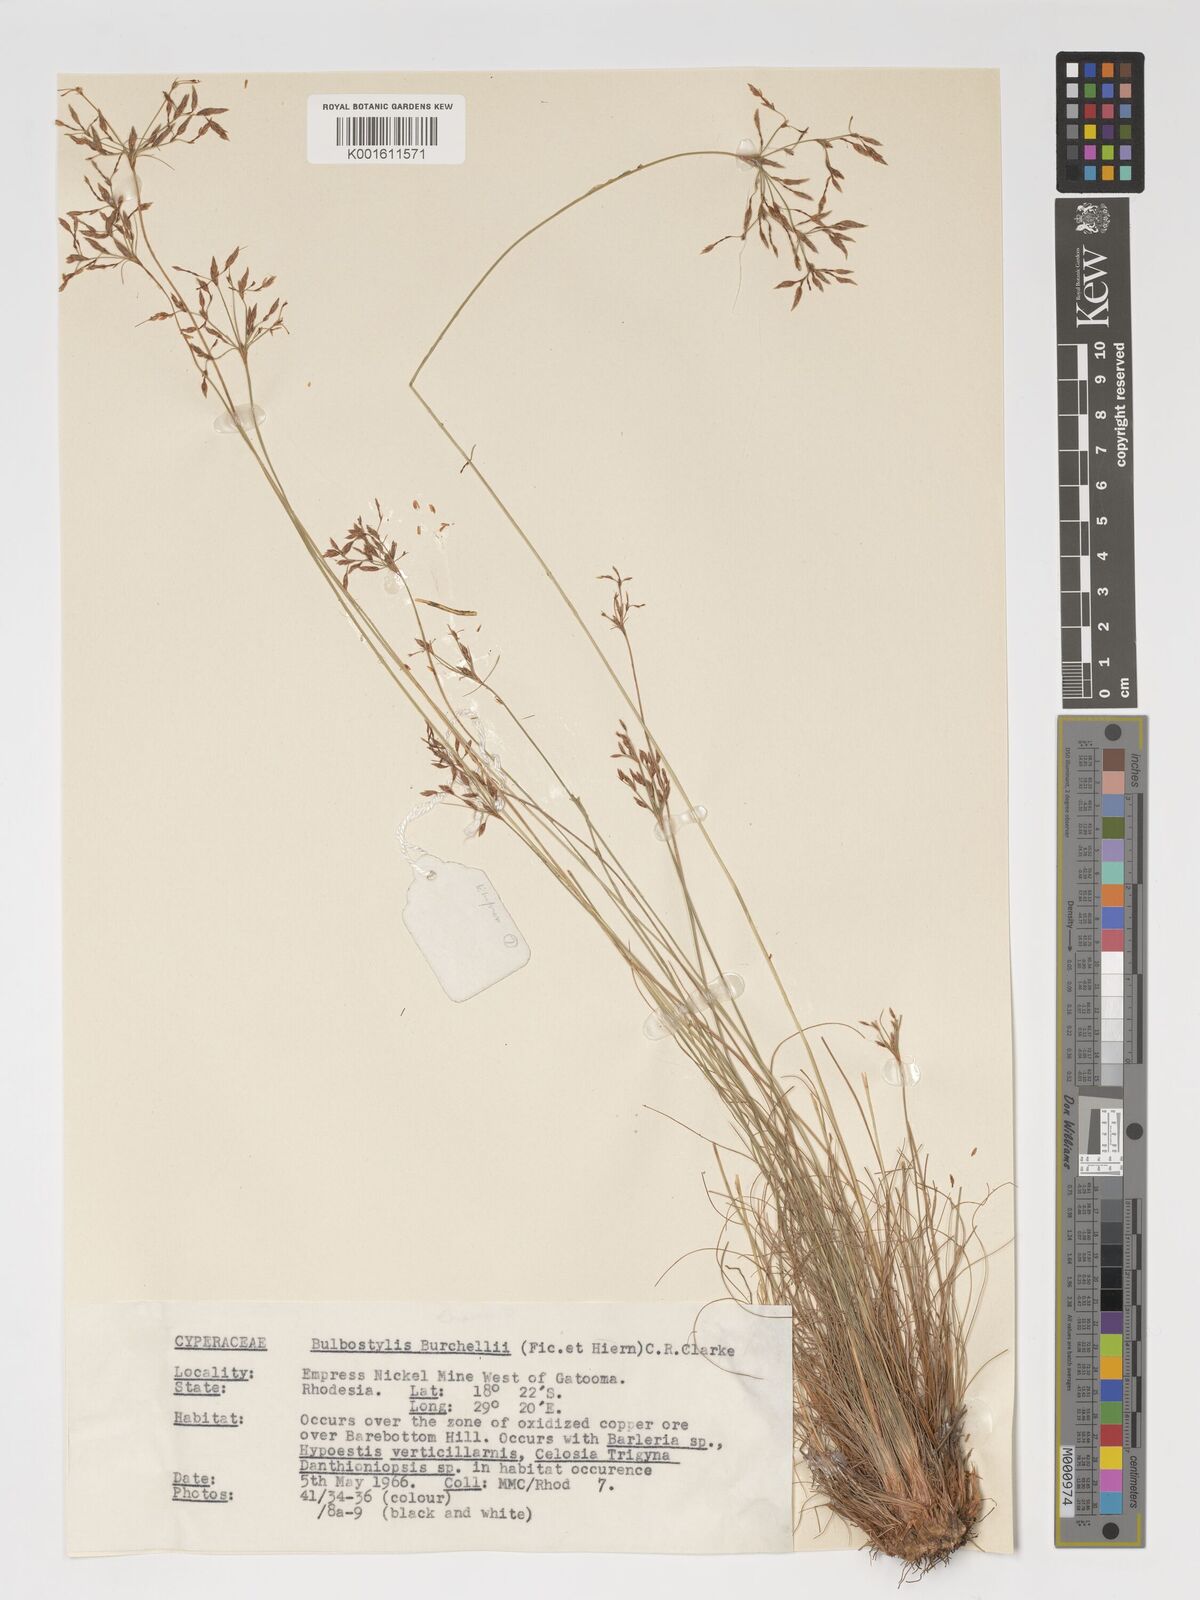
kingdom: Plantae
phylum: Tracheophyta
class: Liliopsida
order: Poales
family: Cyperaceae
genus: Bulbostylis
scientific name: Bulbostylis burchellii
